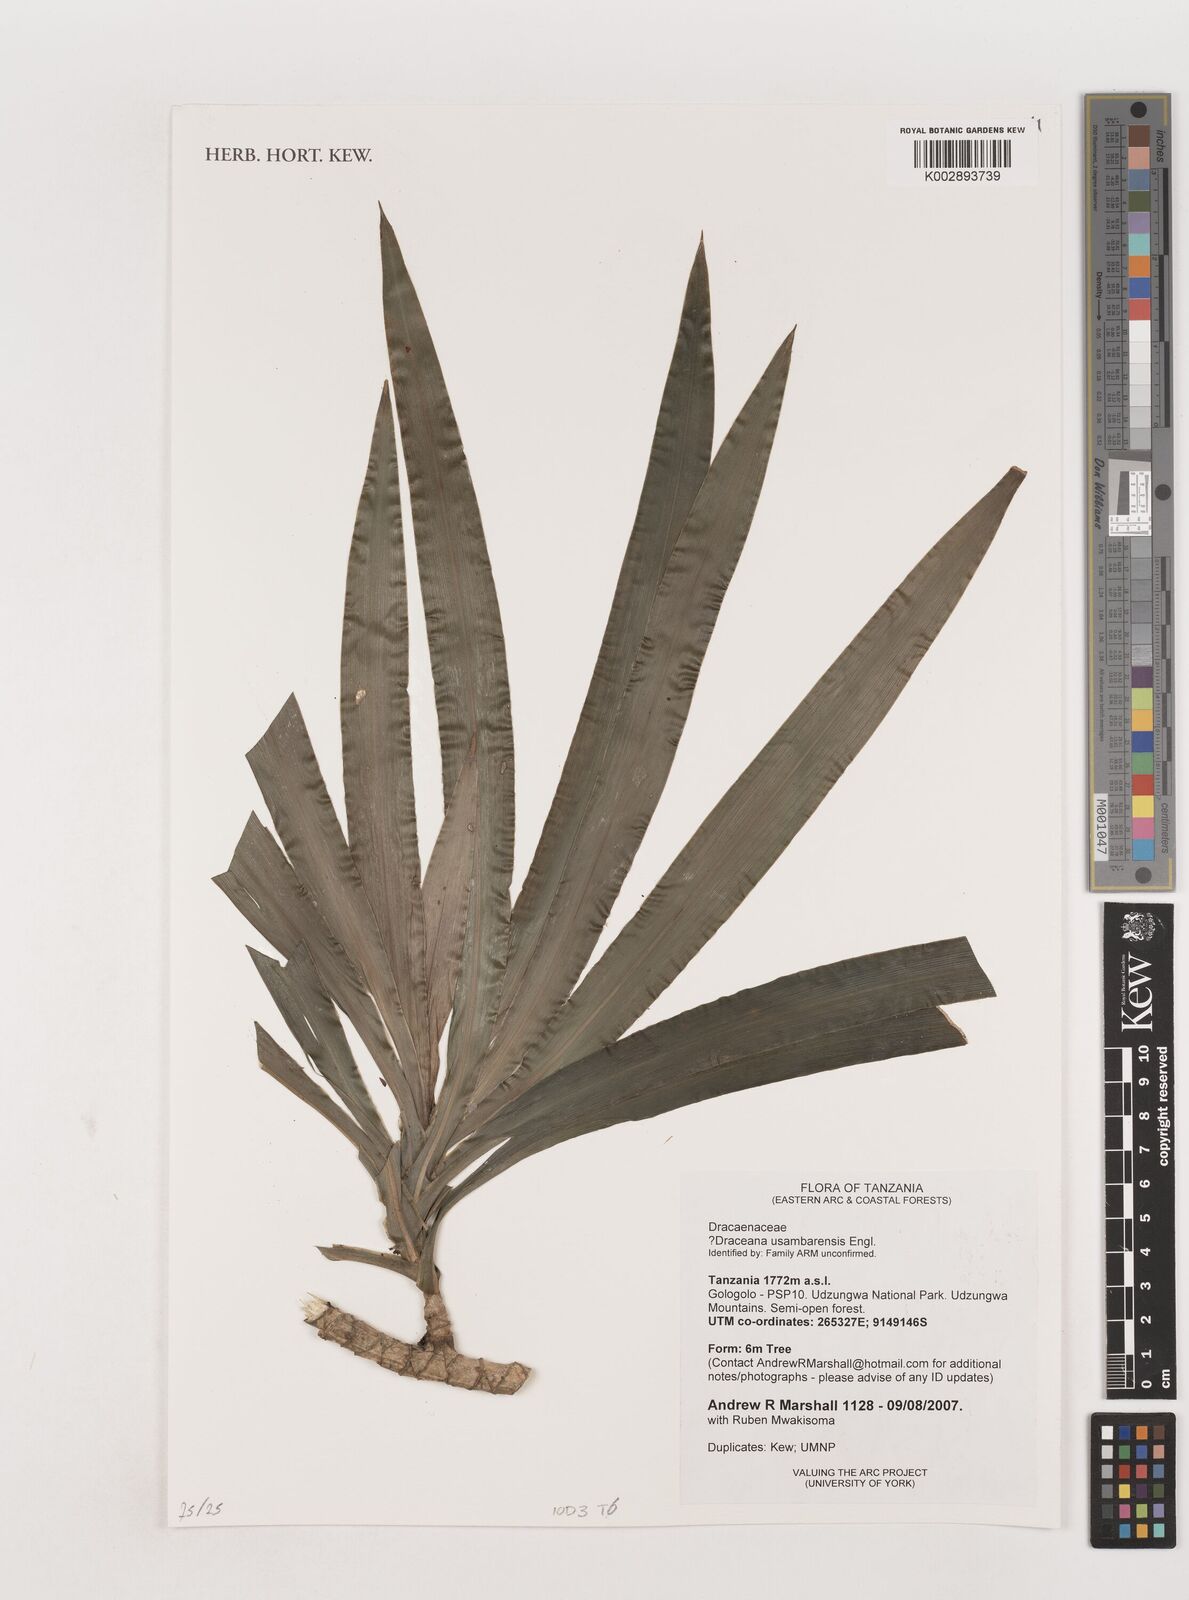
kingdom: Plantae
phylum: Tracheophyta
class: Liliopsida
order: Asparagales
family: Asparagaceae
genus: Dracaena
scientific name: Dracaena usambarensis
